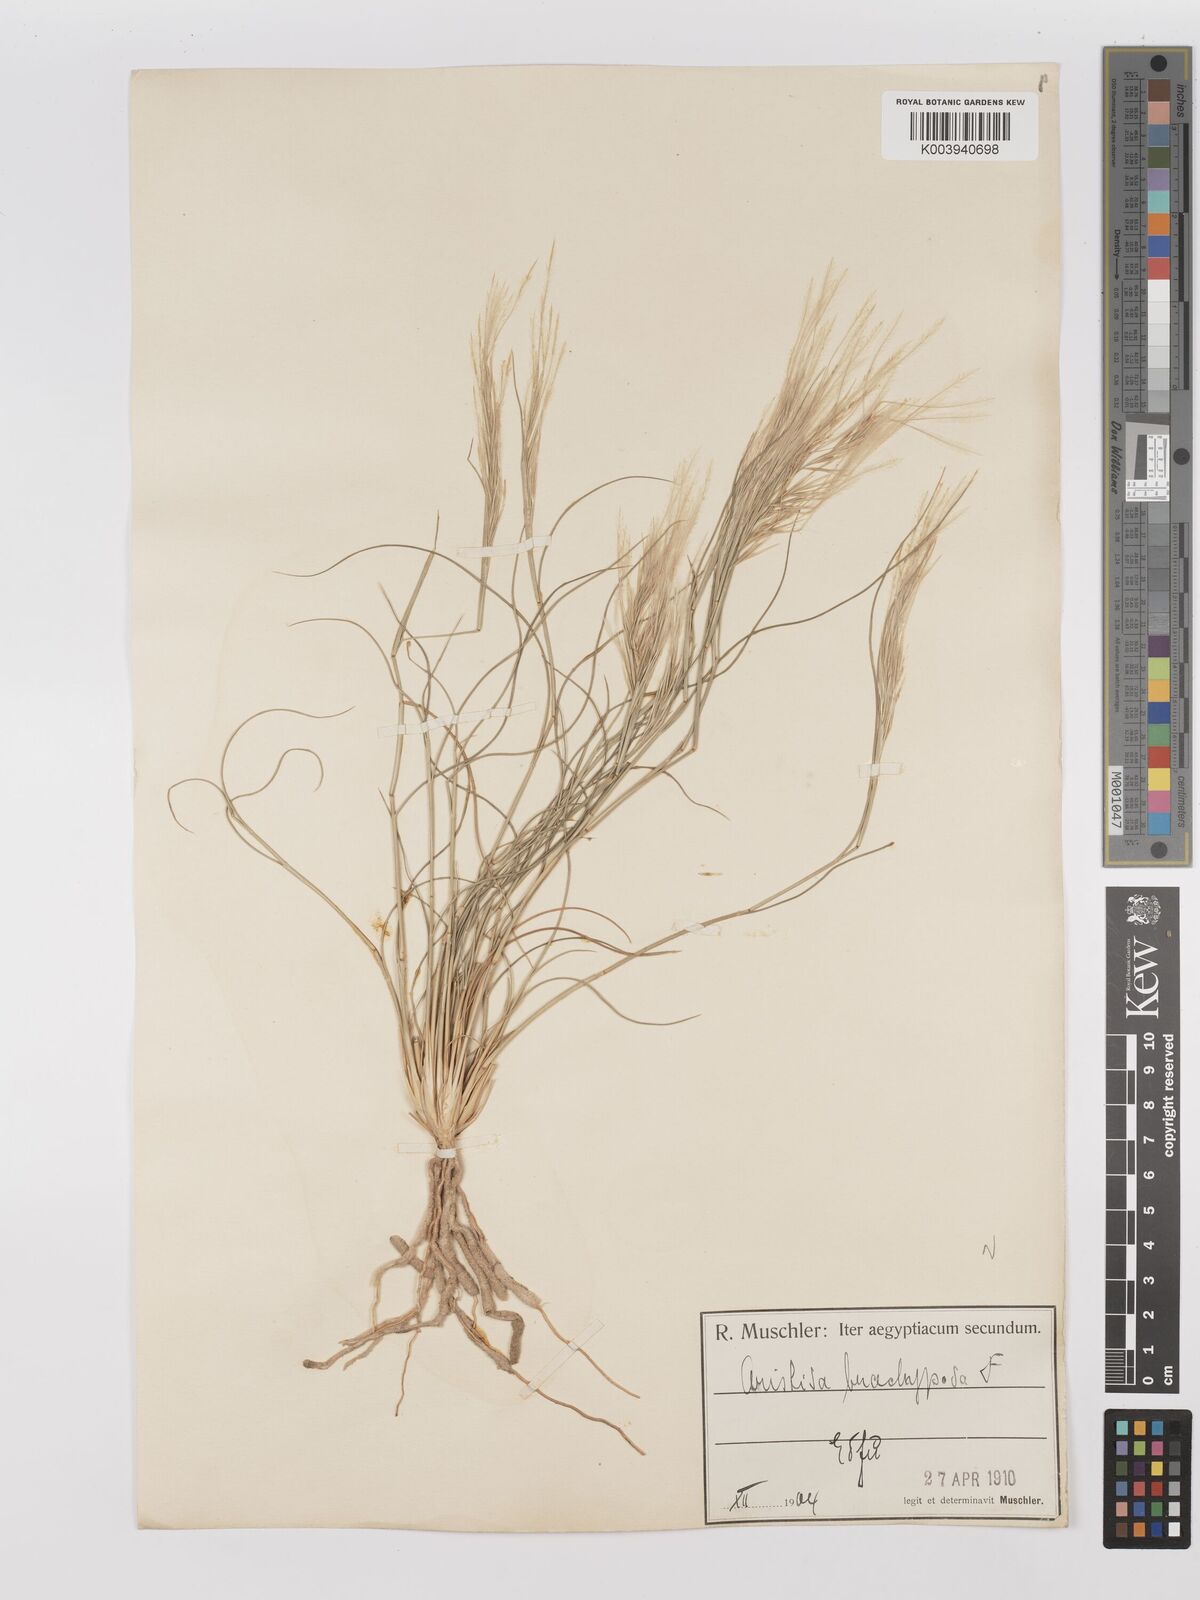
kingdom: Plantae
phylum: Tracheophyta
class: Liliopsida
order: Poales
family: Poaceae
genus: Stipagrostis
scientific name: Stipagrostis plumosa
